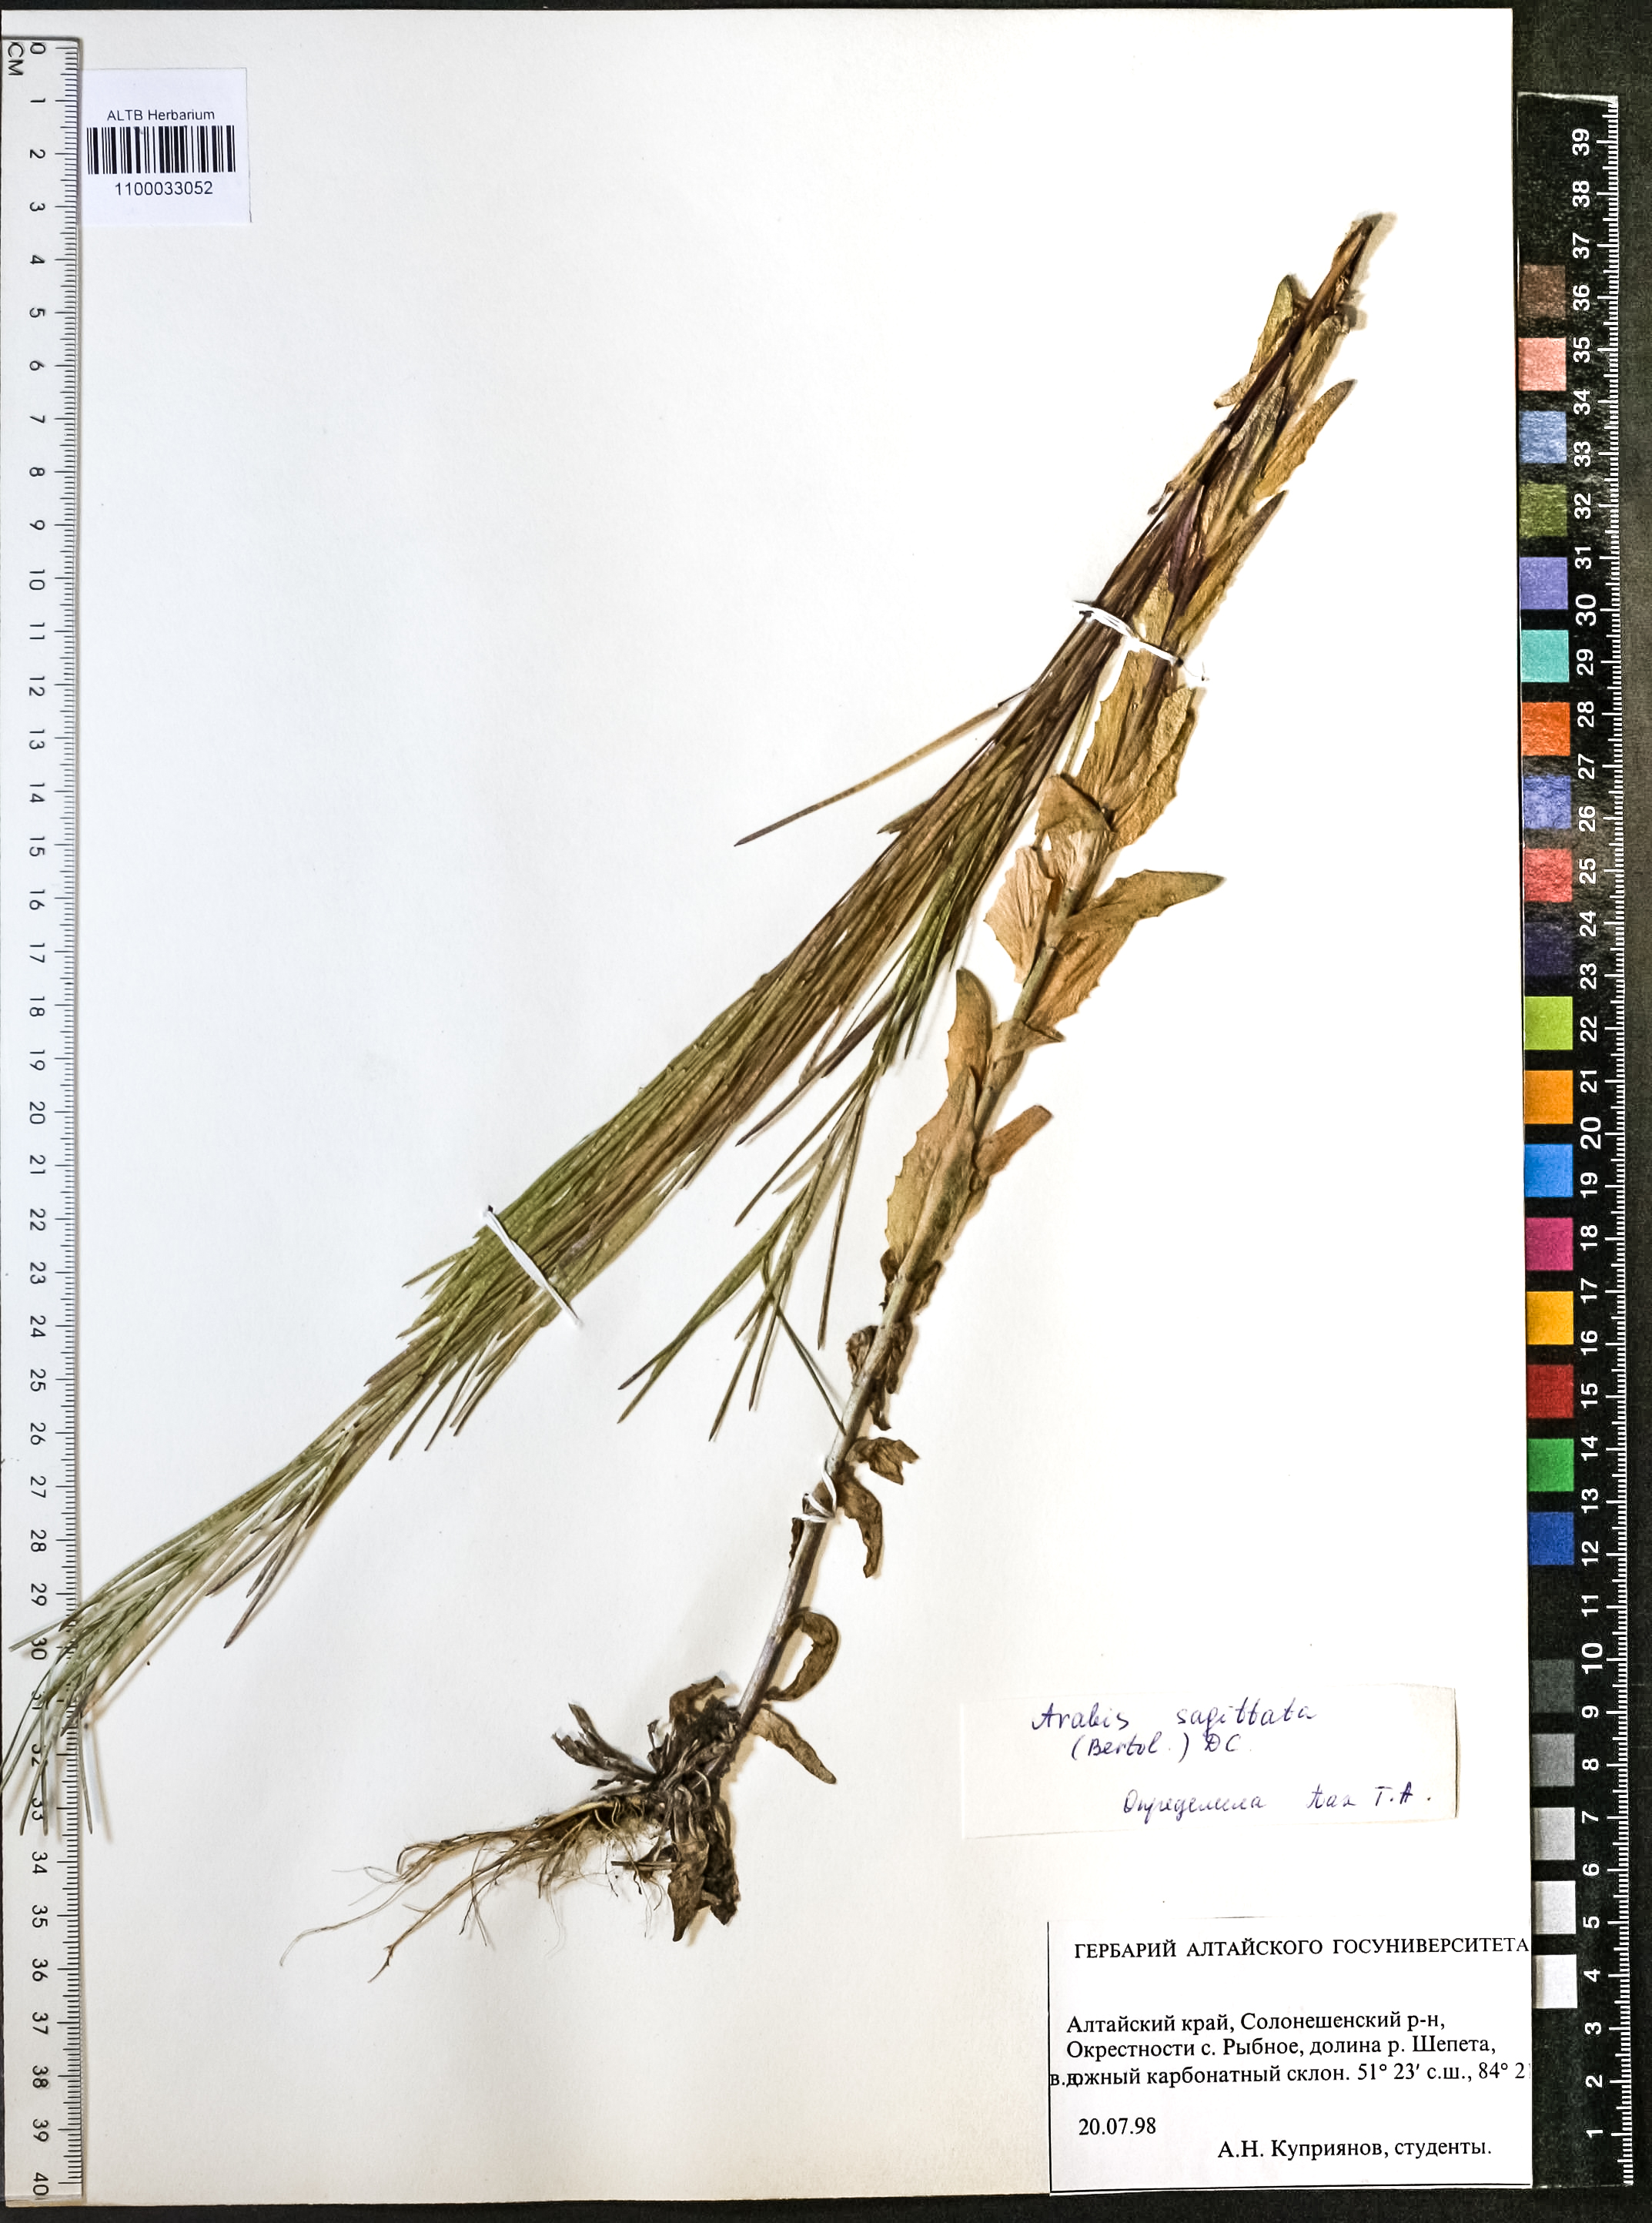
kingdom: Plantae
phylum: Tracheophyta
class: Magnoliopsida
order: Brassicales
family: Brassicaceae
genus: Arabis
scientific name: Arabis sagittata
